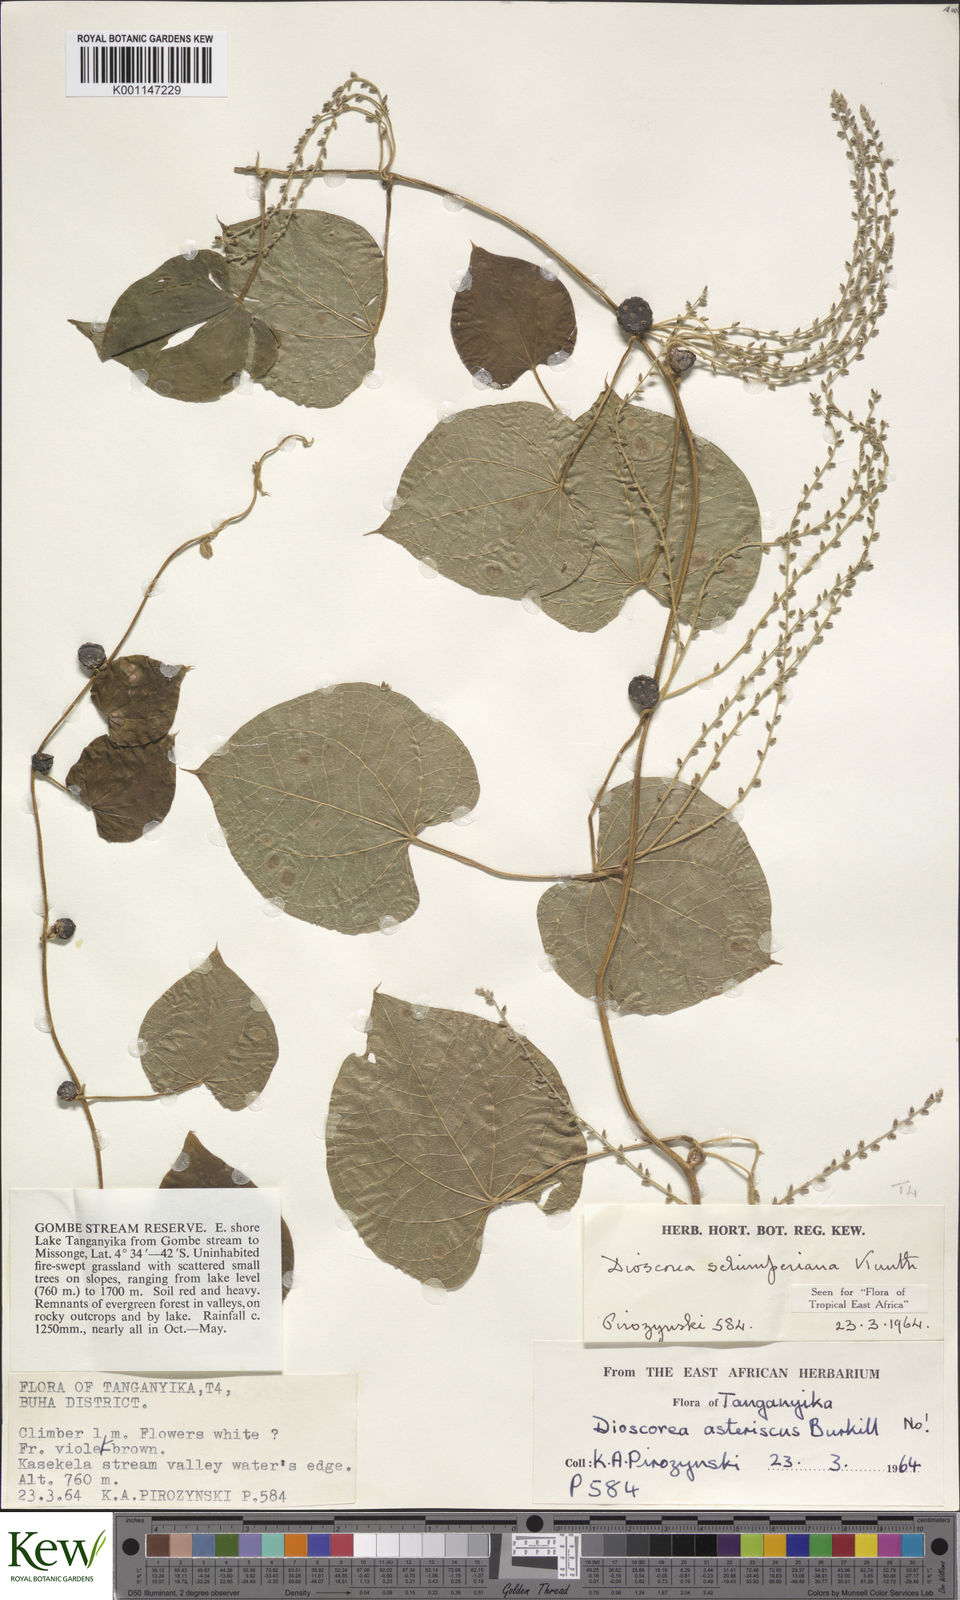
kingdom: Plantae
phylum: Tracheophyta
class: Liliopsida
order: Dioscoreales
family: Dioscoreaceae
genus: Dioscorea
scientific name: Dioscorea schimperiana
